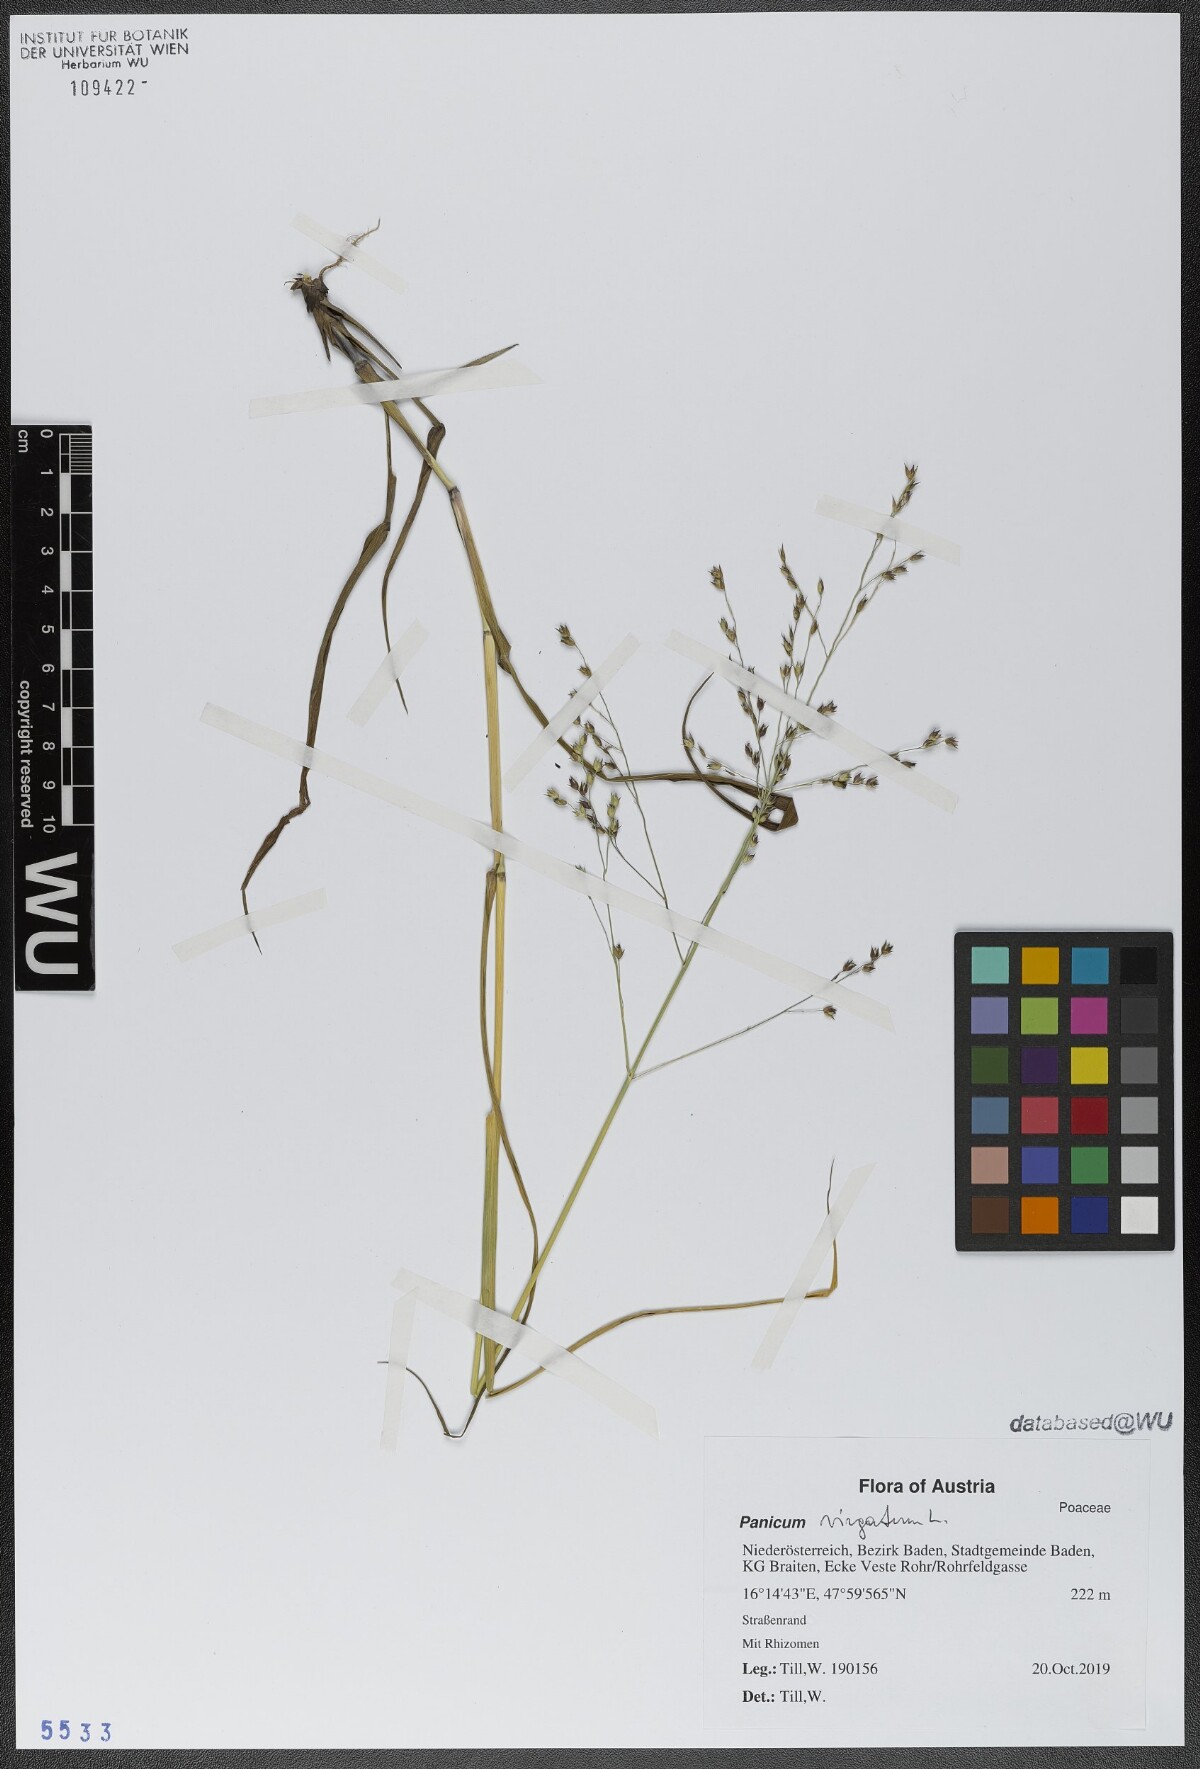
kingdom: Plantae
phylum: Tracheophyta
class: Liliopsida
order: Poales
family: Poaceae
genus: Panicum
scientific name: Panicum virgatum
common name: Switchgrass
